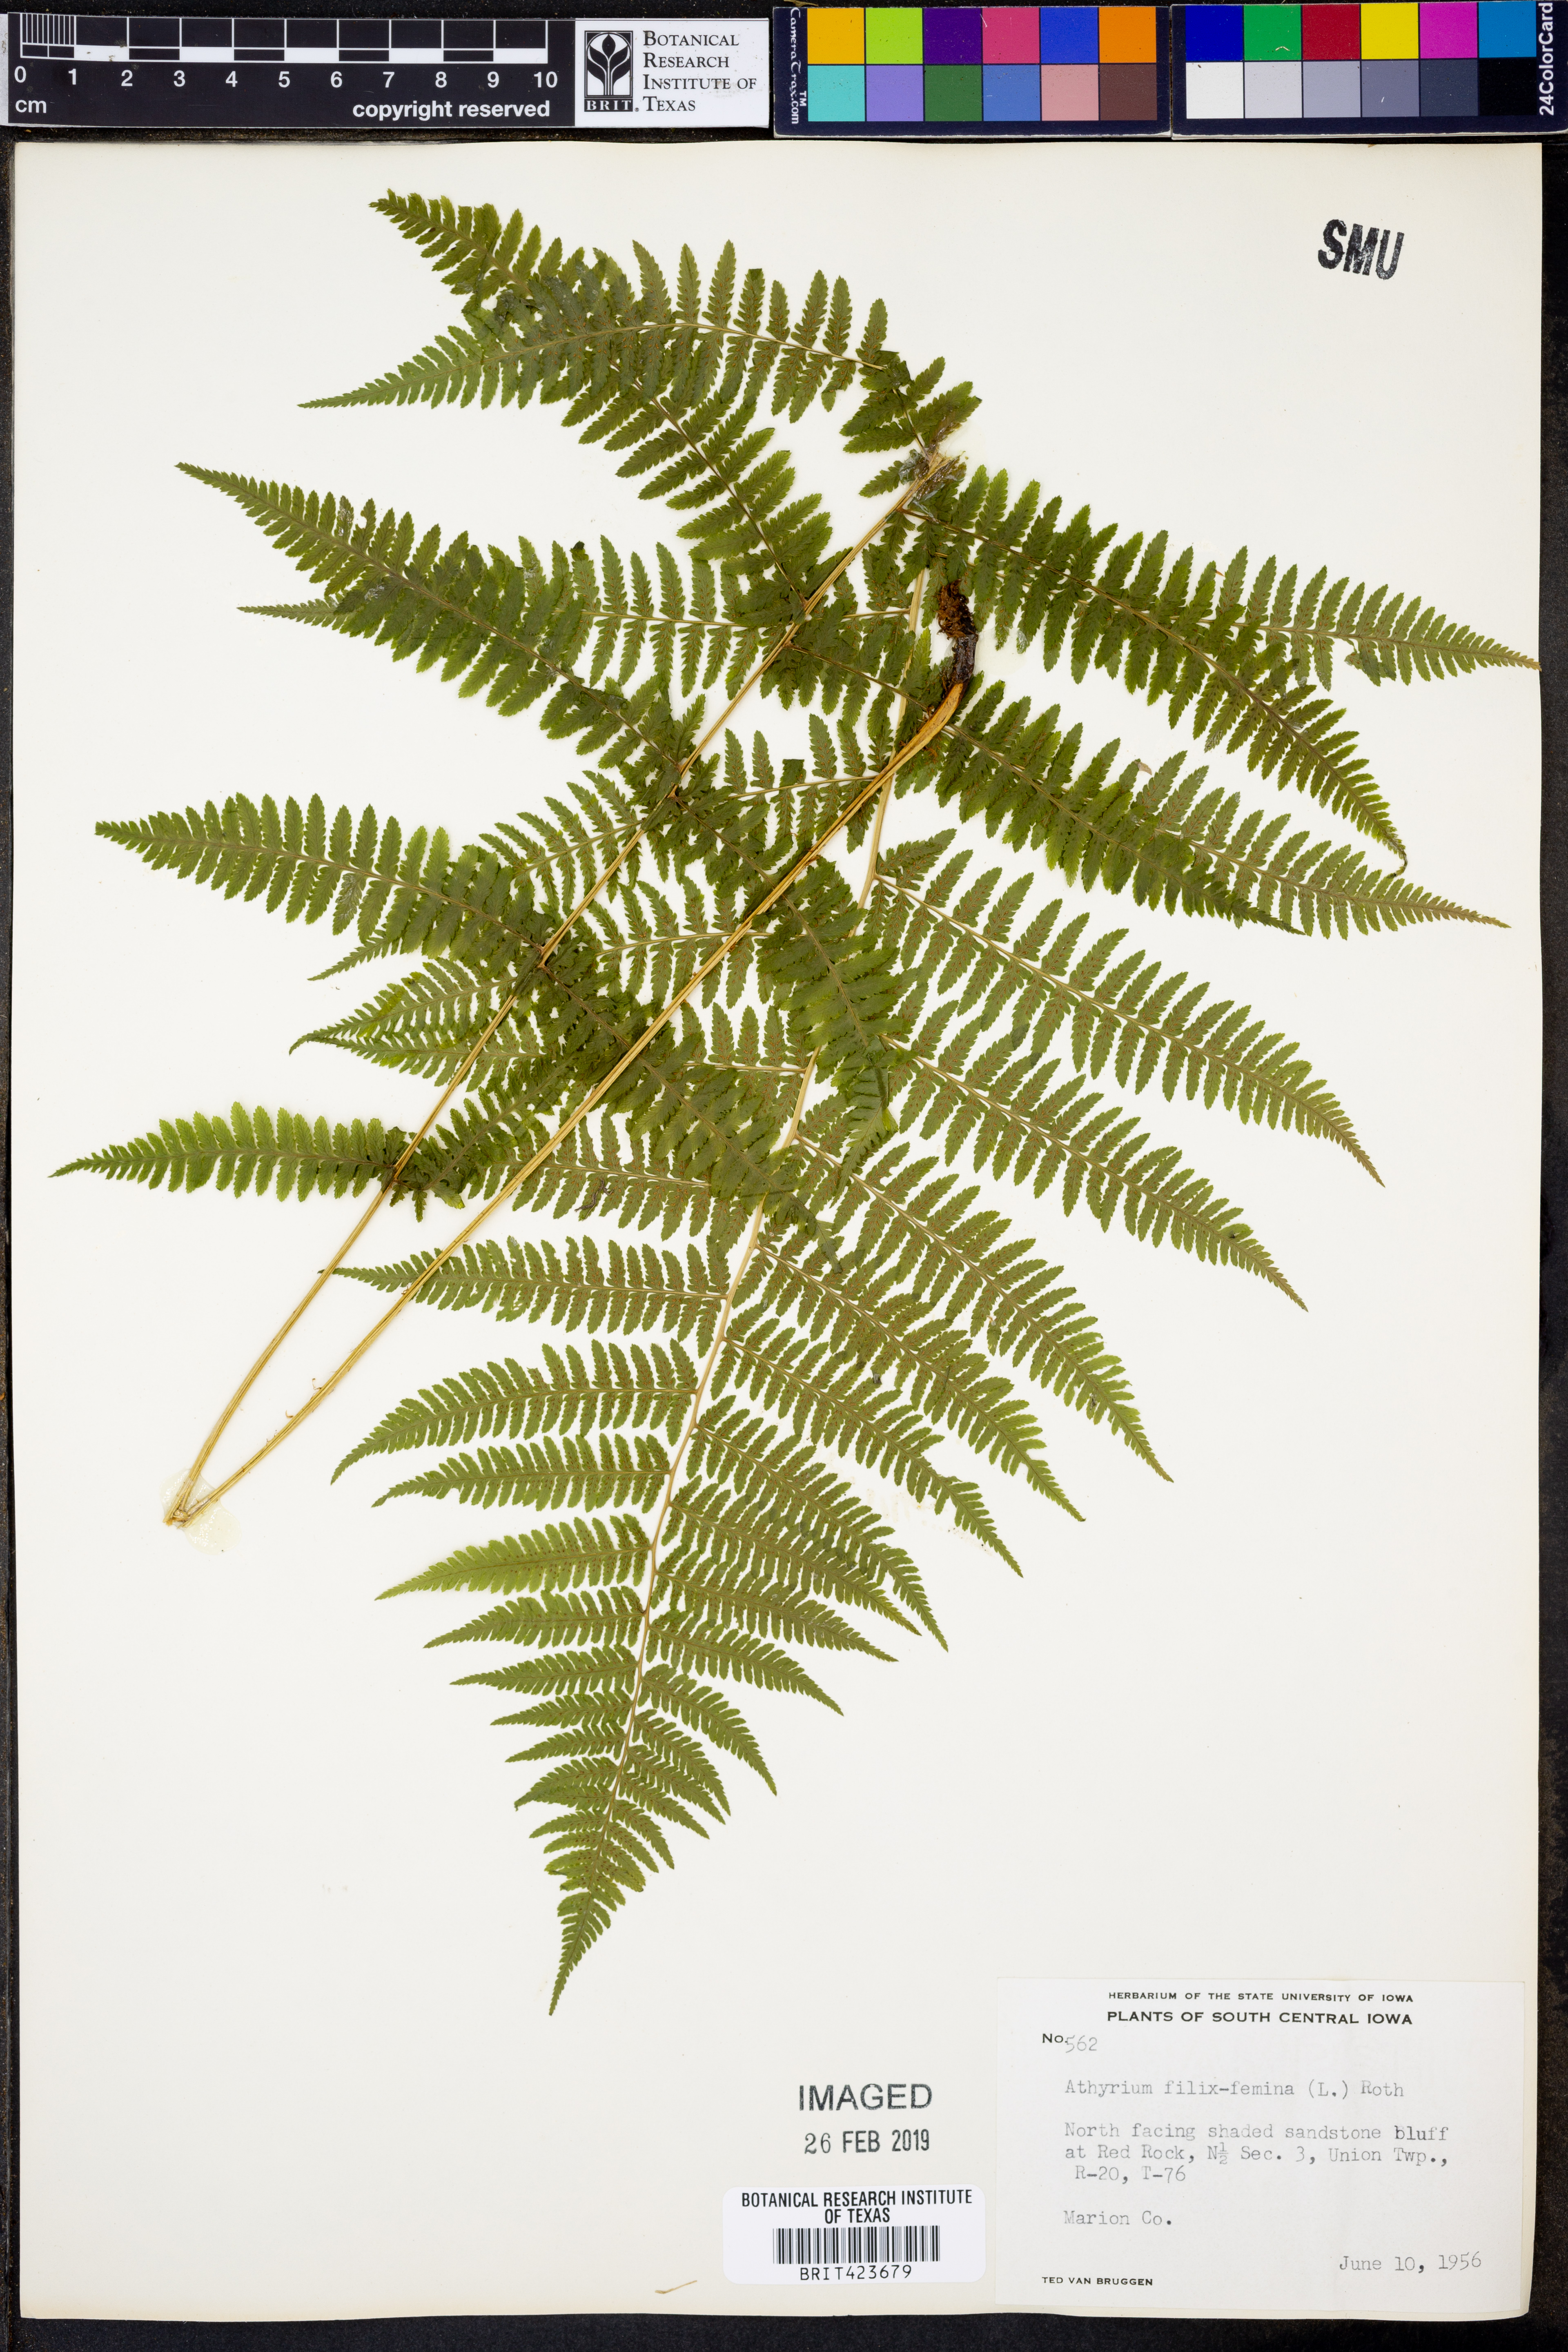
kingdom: Plantae
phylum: Tracheophyta
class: Polypodiopsida
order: Polypodiales
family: Athyriaceae
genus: Athyrium
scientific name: Athyrium filix-femina
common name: Lady fern
